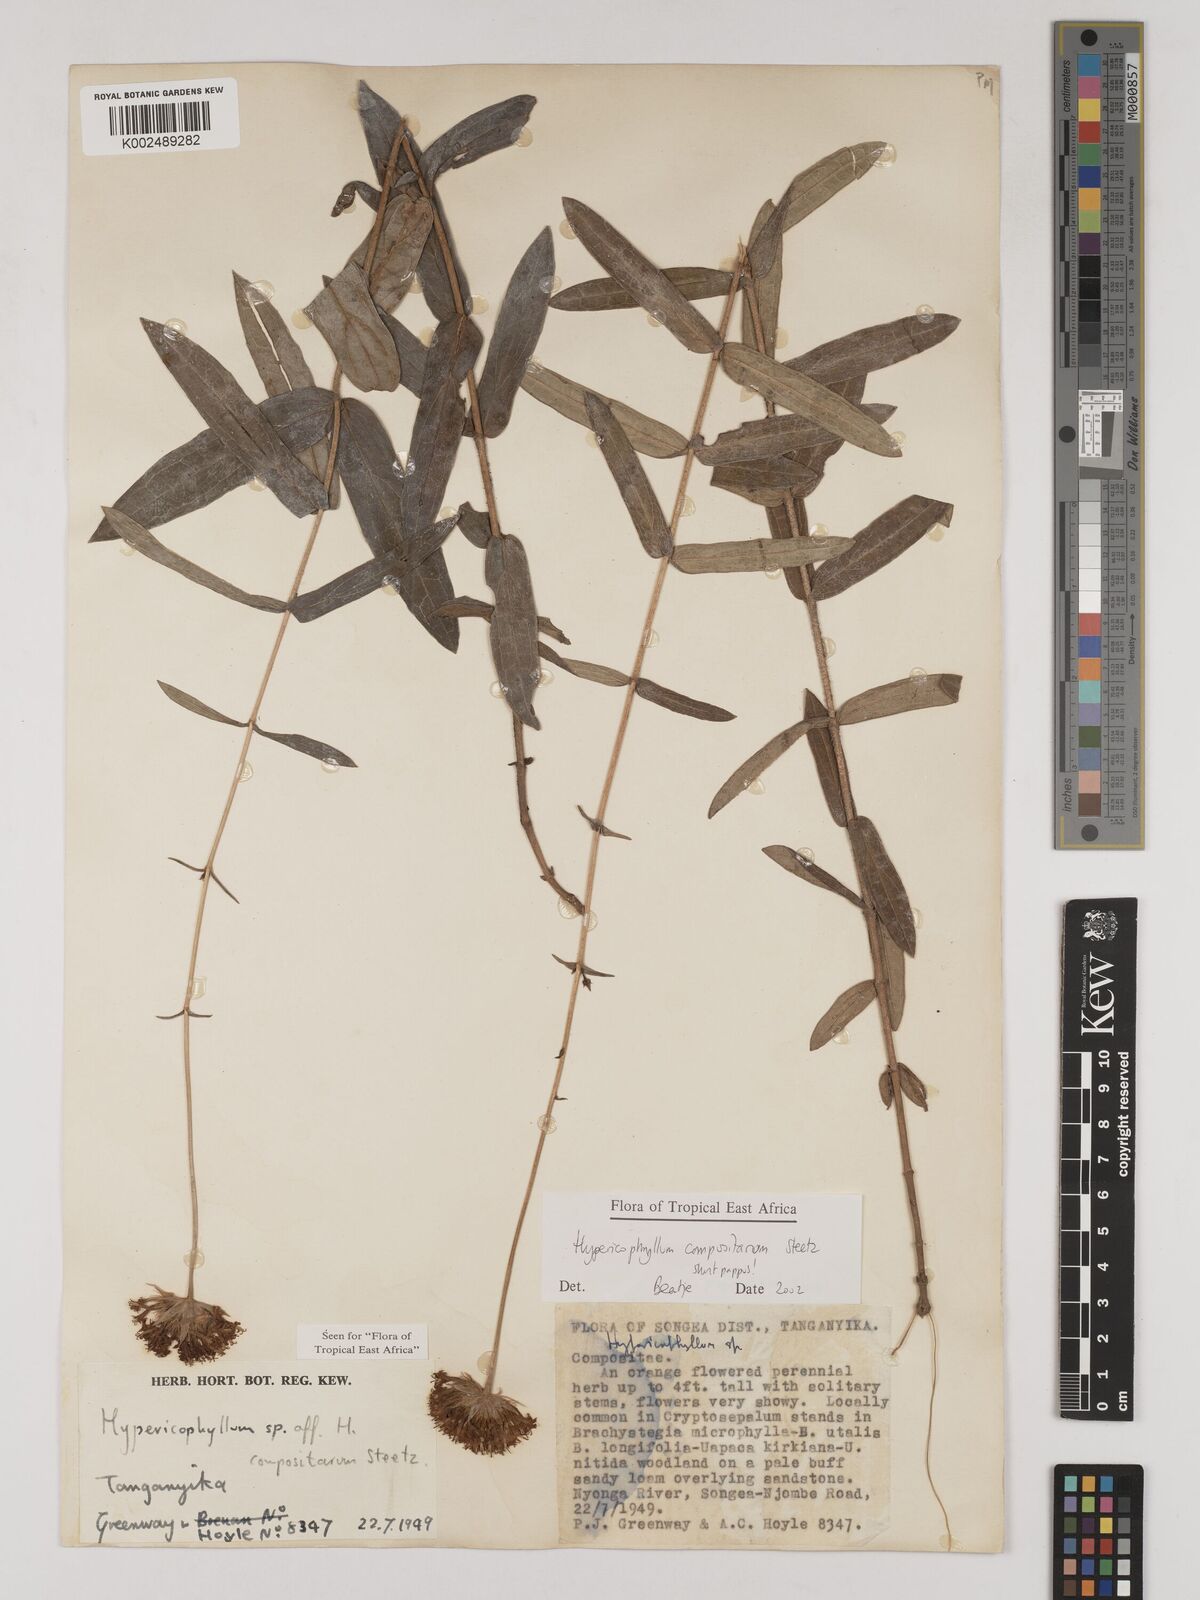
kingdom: Plantae
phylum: Tracheophyta
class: Magnoliopsida
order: Asterales
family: Asteraceae
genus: Hypericophyllum
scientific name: Hypericophyllum compositarum
